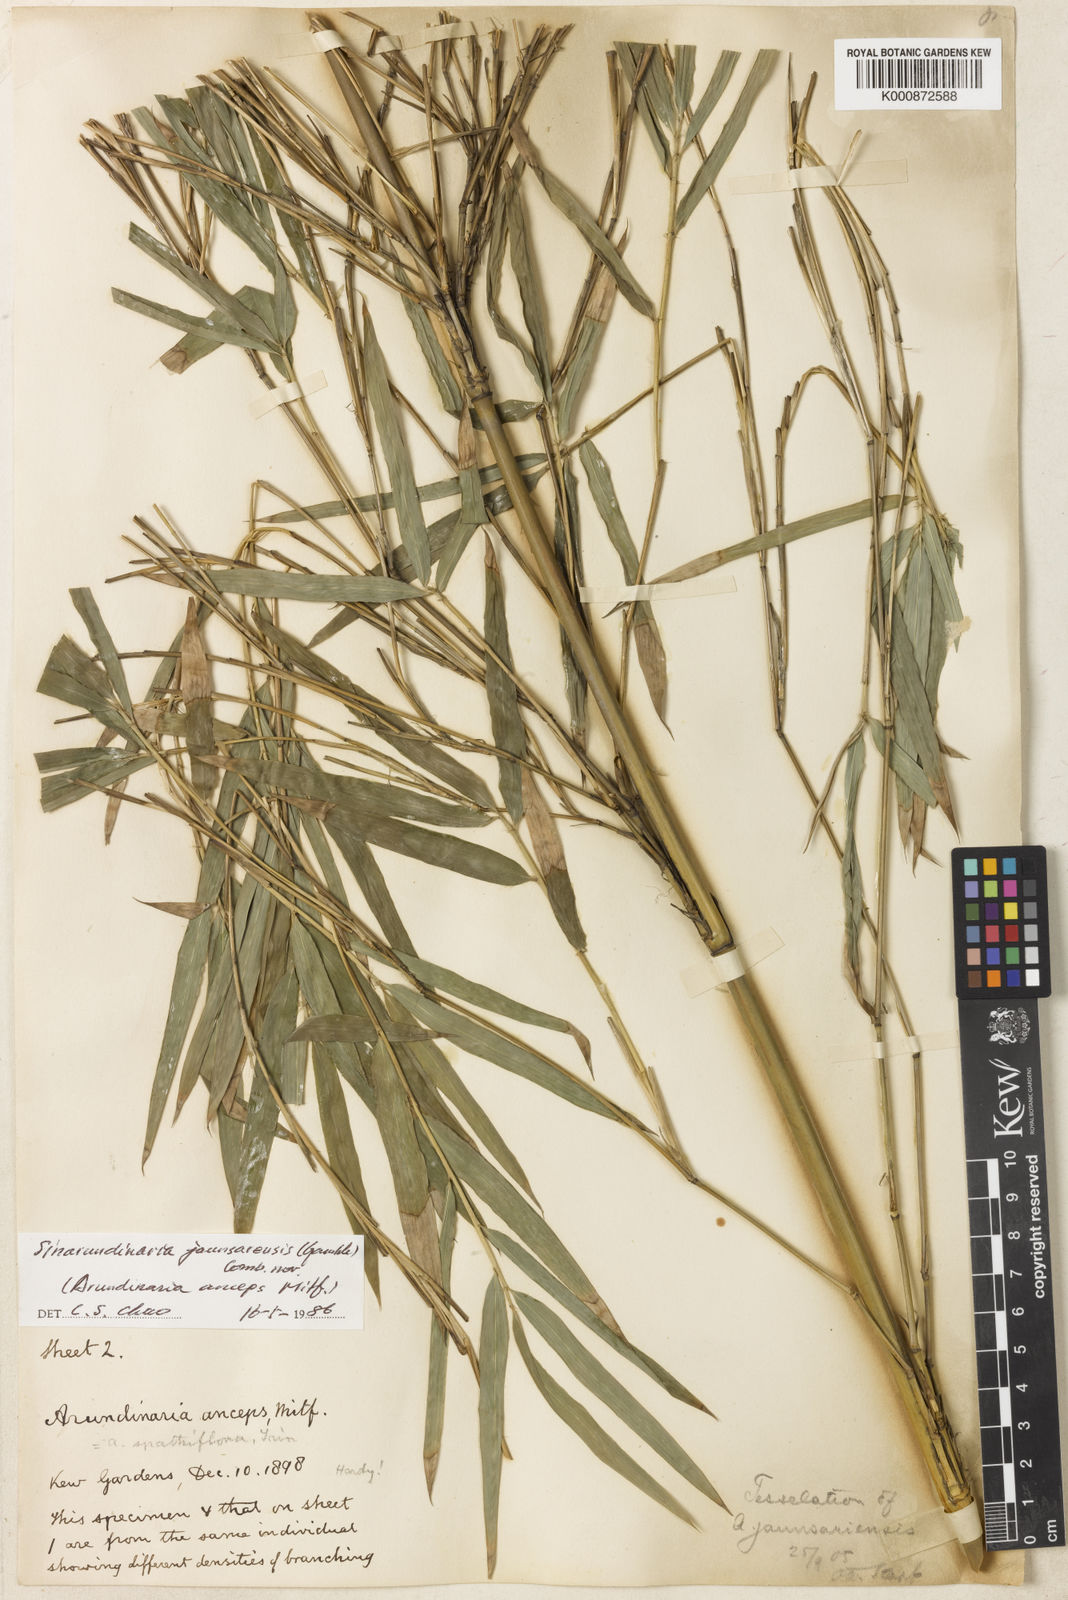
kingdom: Plantae
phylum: Tracheophyta
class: Liliopsida
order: Poales
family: Poaceae
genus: Yushania
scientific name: Yushania anceps
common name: Indian fountain-bamboo
